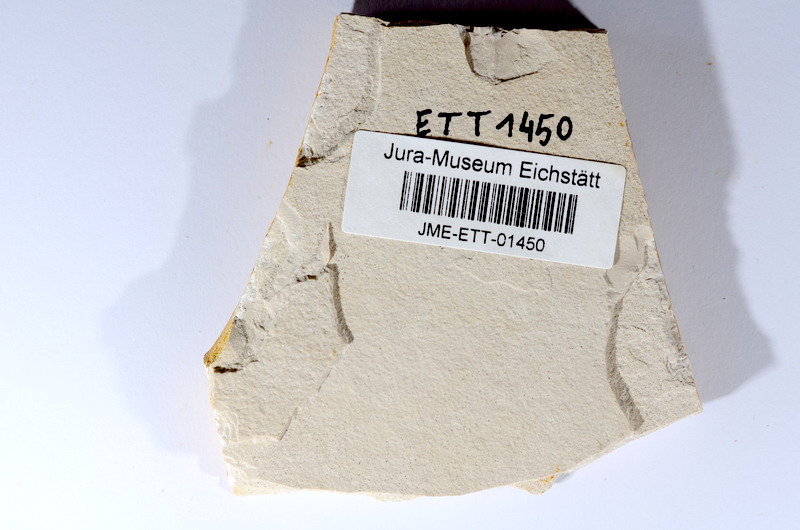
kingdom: Animalia
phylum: Chordata
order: Salmoniformes
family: Orthogonikleithridae
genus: Orthogonikleithrus
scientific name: Orthogonikleithrus hoelli
